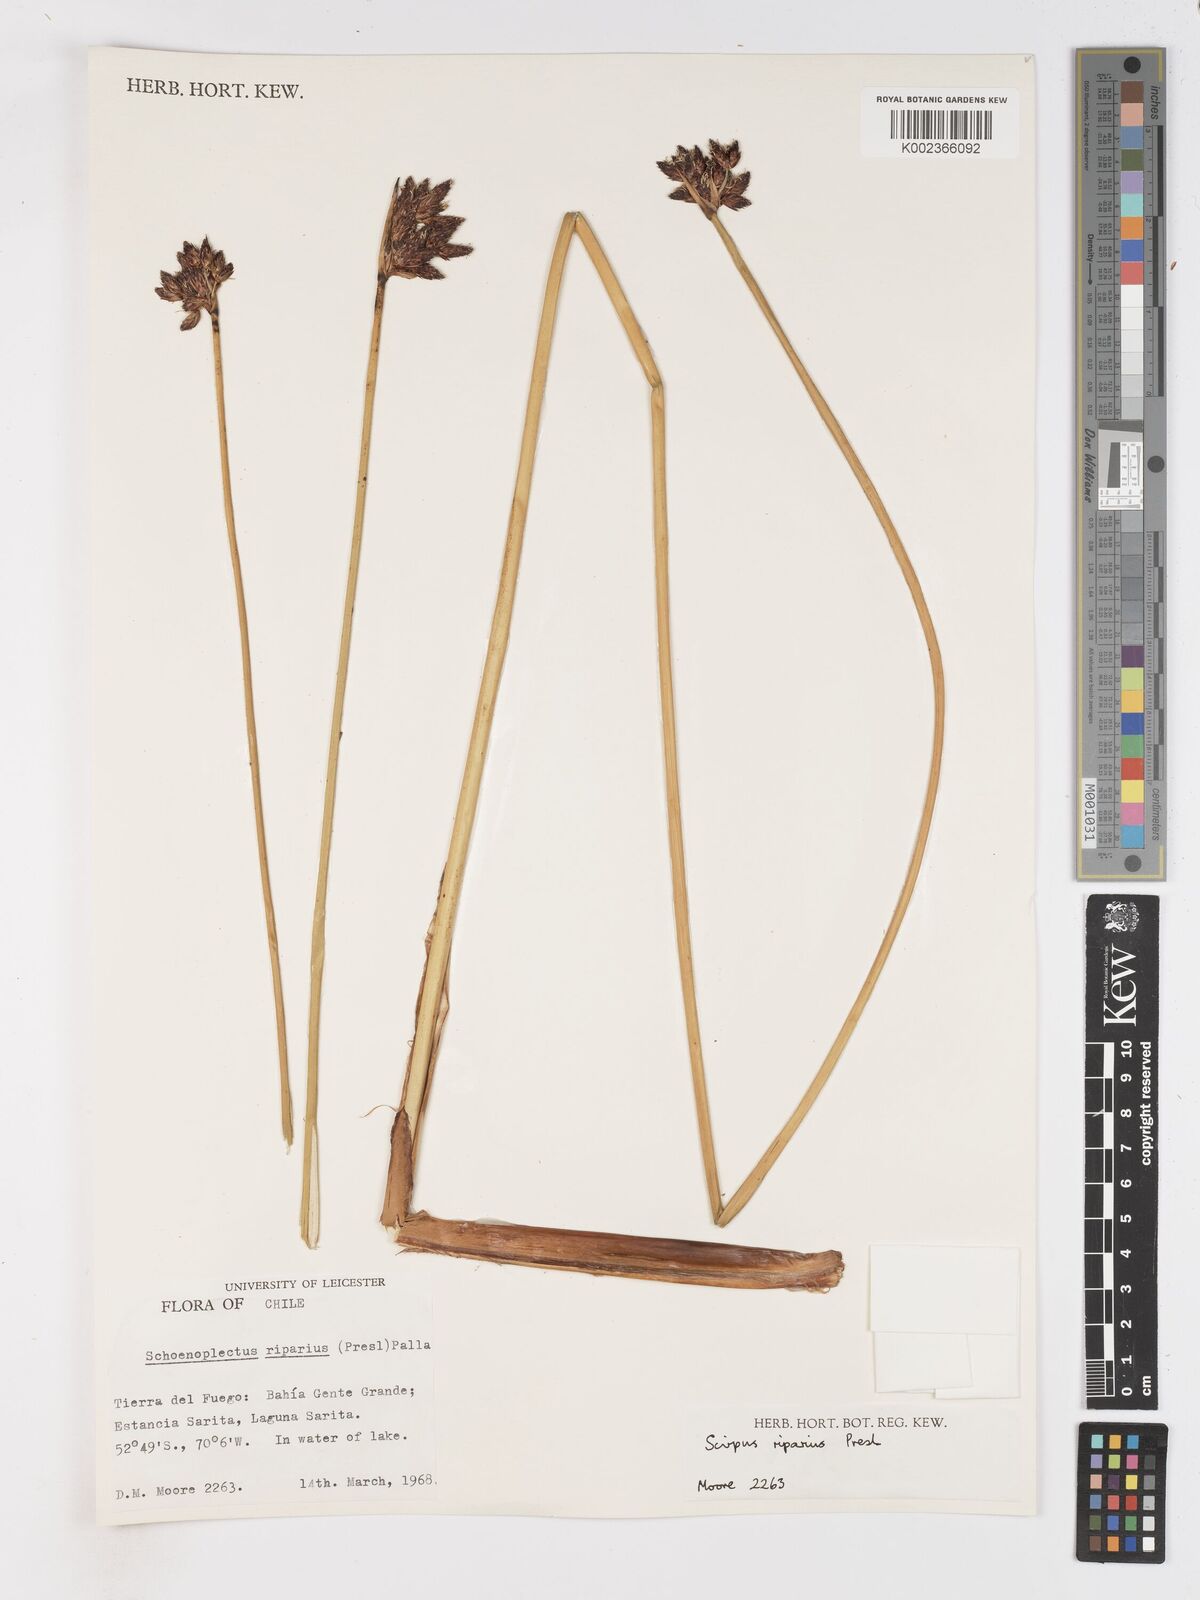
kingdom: Plantae
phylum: Tracheophyta
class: Liliopsida
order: Poales
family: Cyperaceae
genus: Schoenoplectus
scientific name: Schoenoplectus californicus
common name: California bulrush
